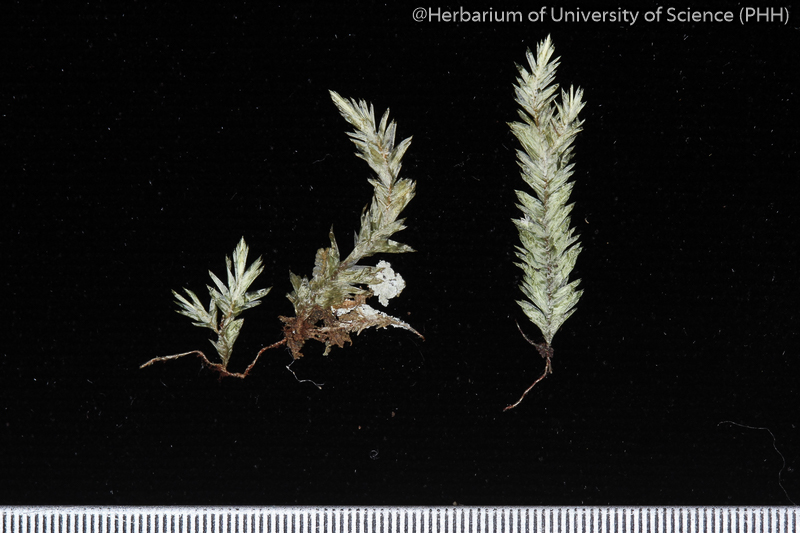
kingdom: Plantae
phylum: Bryophyta
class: Bryopsida
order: Hypnales
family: Pterobryaceae
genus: Cryptogonium
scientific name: Cryptogonium dubium
